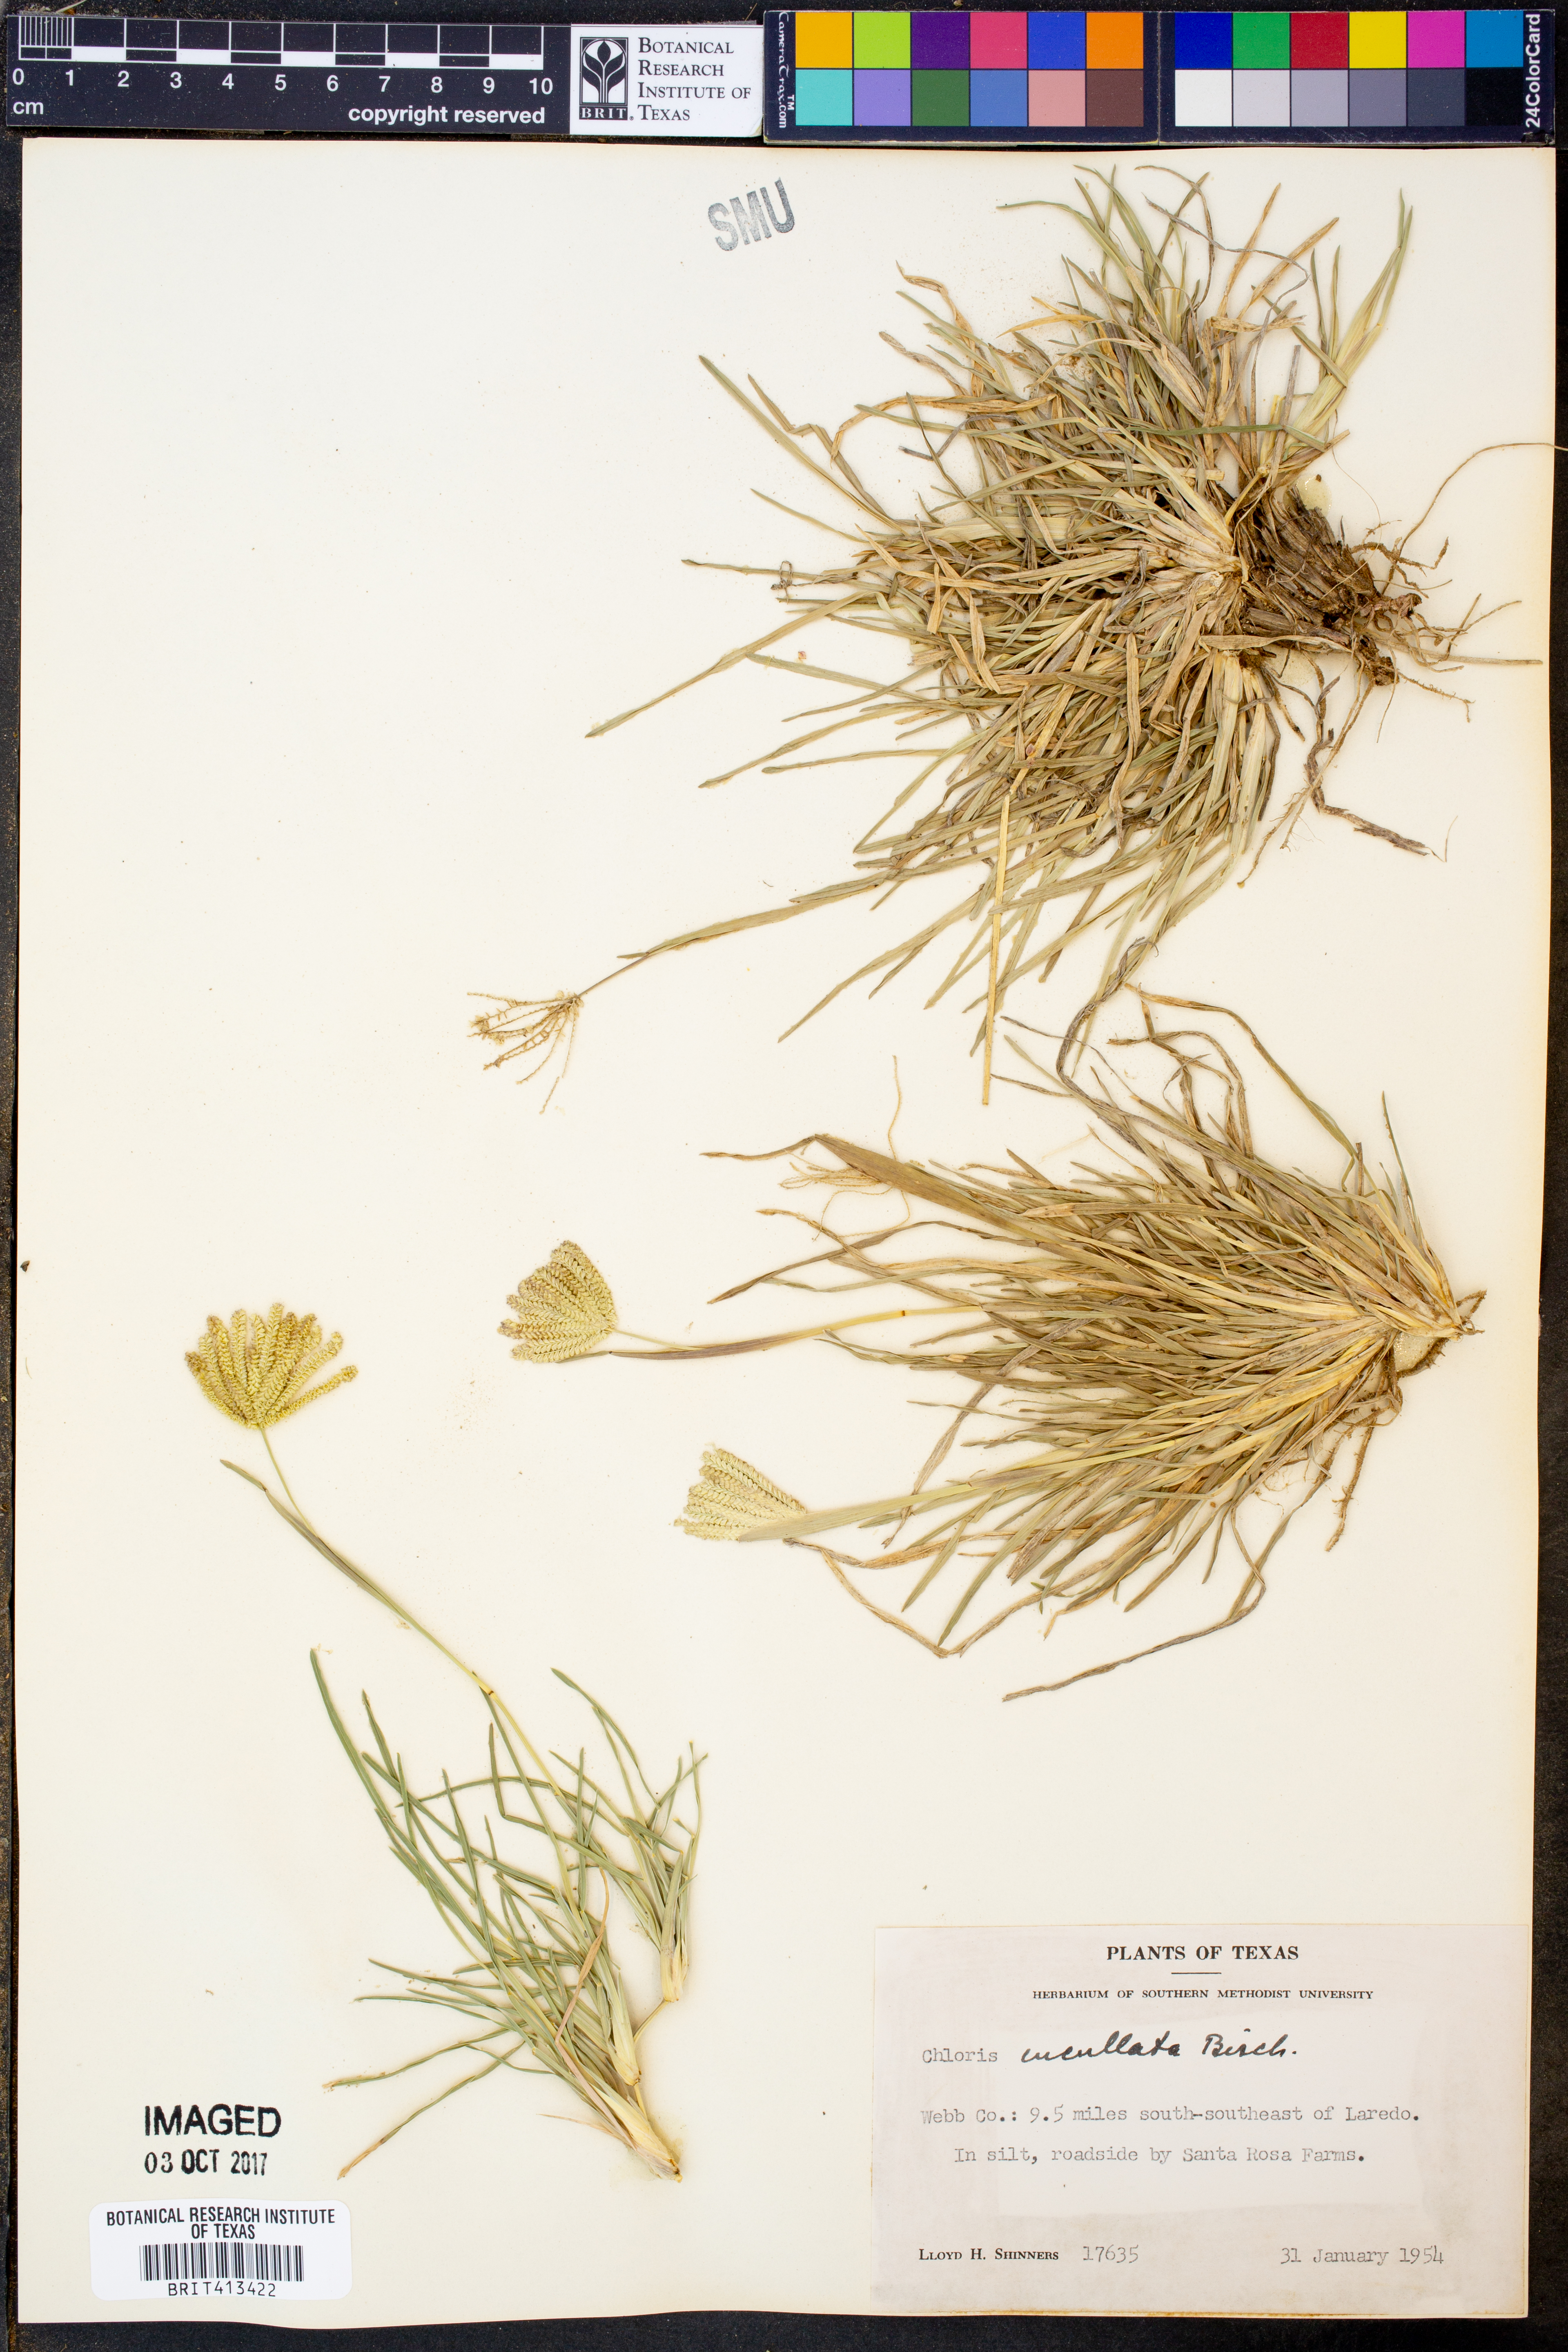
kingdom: Plantae
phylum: Tracheophyta
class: Liliopsida
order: Poales
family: Poaceae
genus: Chloris
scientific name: Chloris cucullata
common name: Hooded windmill grass
